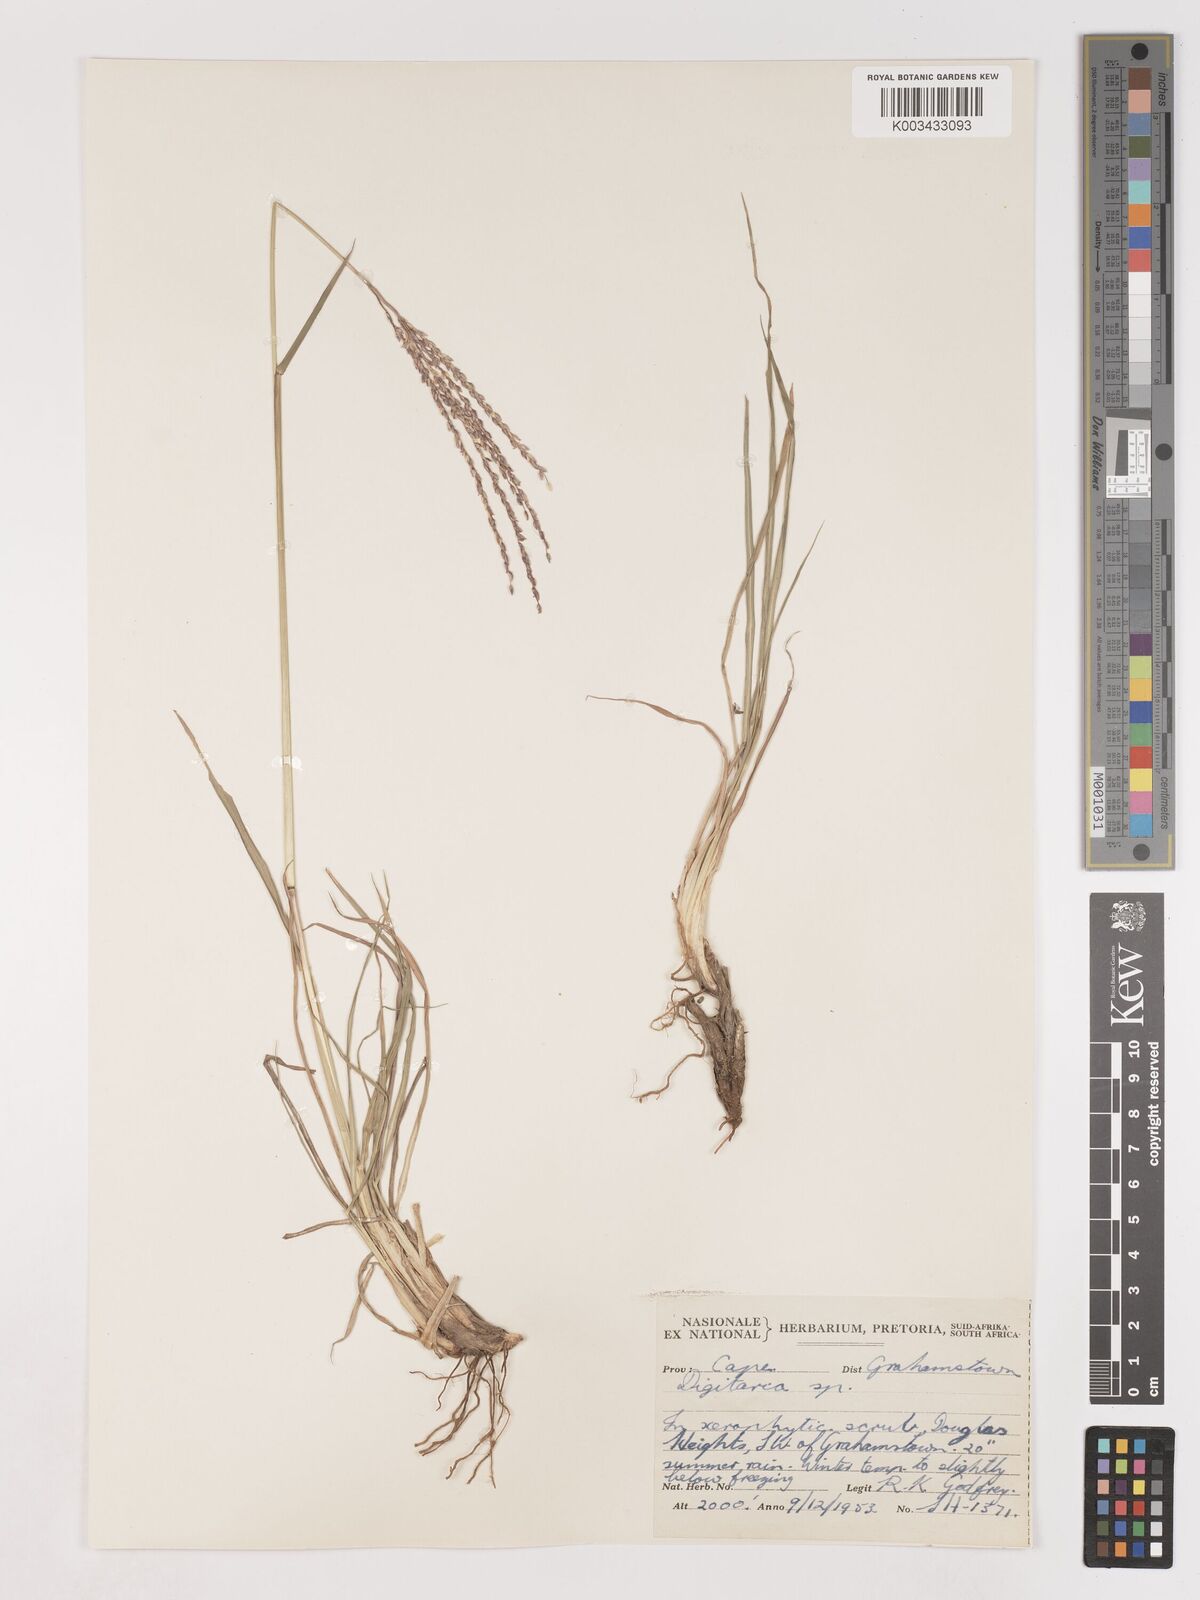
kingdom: Plantae
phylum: Tracheophyta
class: Liliopsida
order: Poales
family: Poaceae
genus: Digitaria
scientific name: Digitaria argyrograpta
